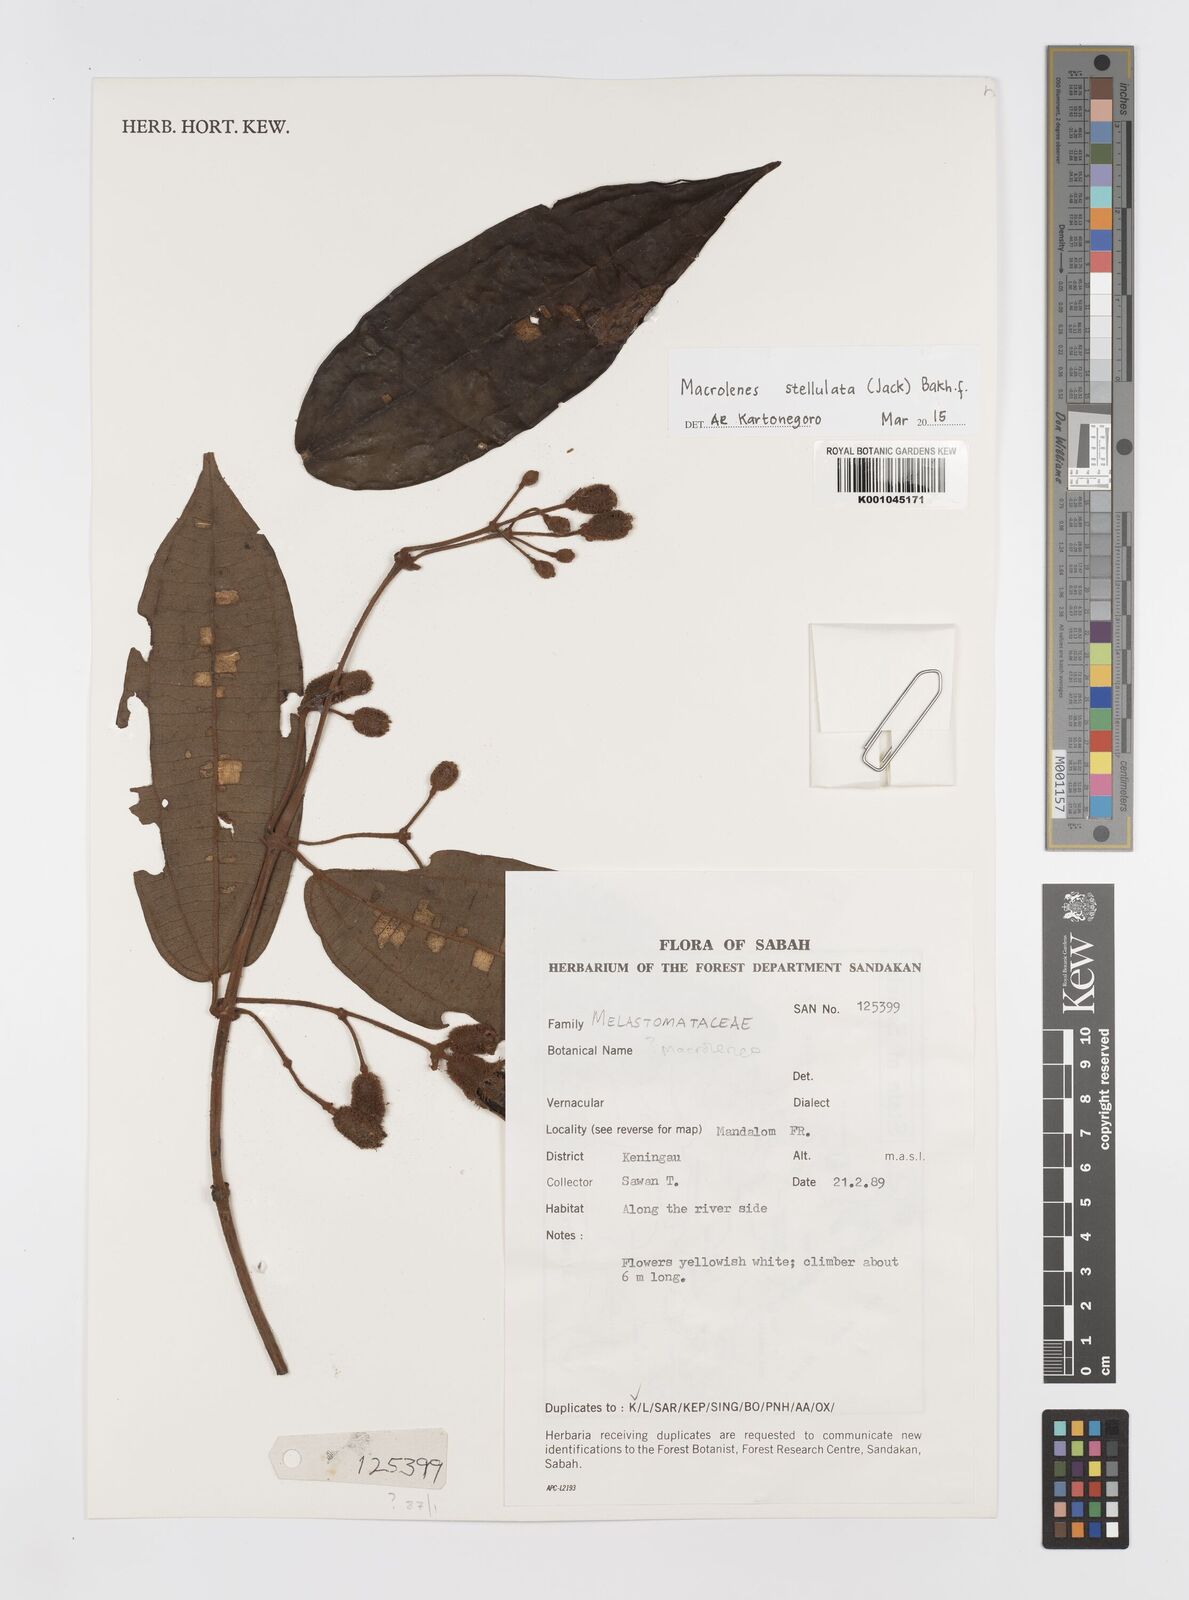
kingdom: Plantae
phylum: Tracheophyta
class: Magnoliopsida
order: Myrtales
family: Melastomataceae
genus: Macrolenes
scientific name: Macrolenes stellulata
